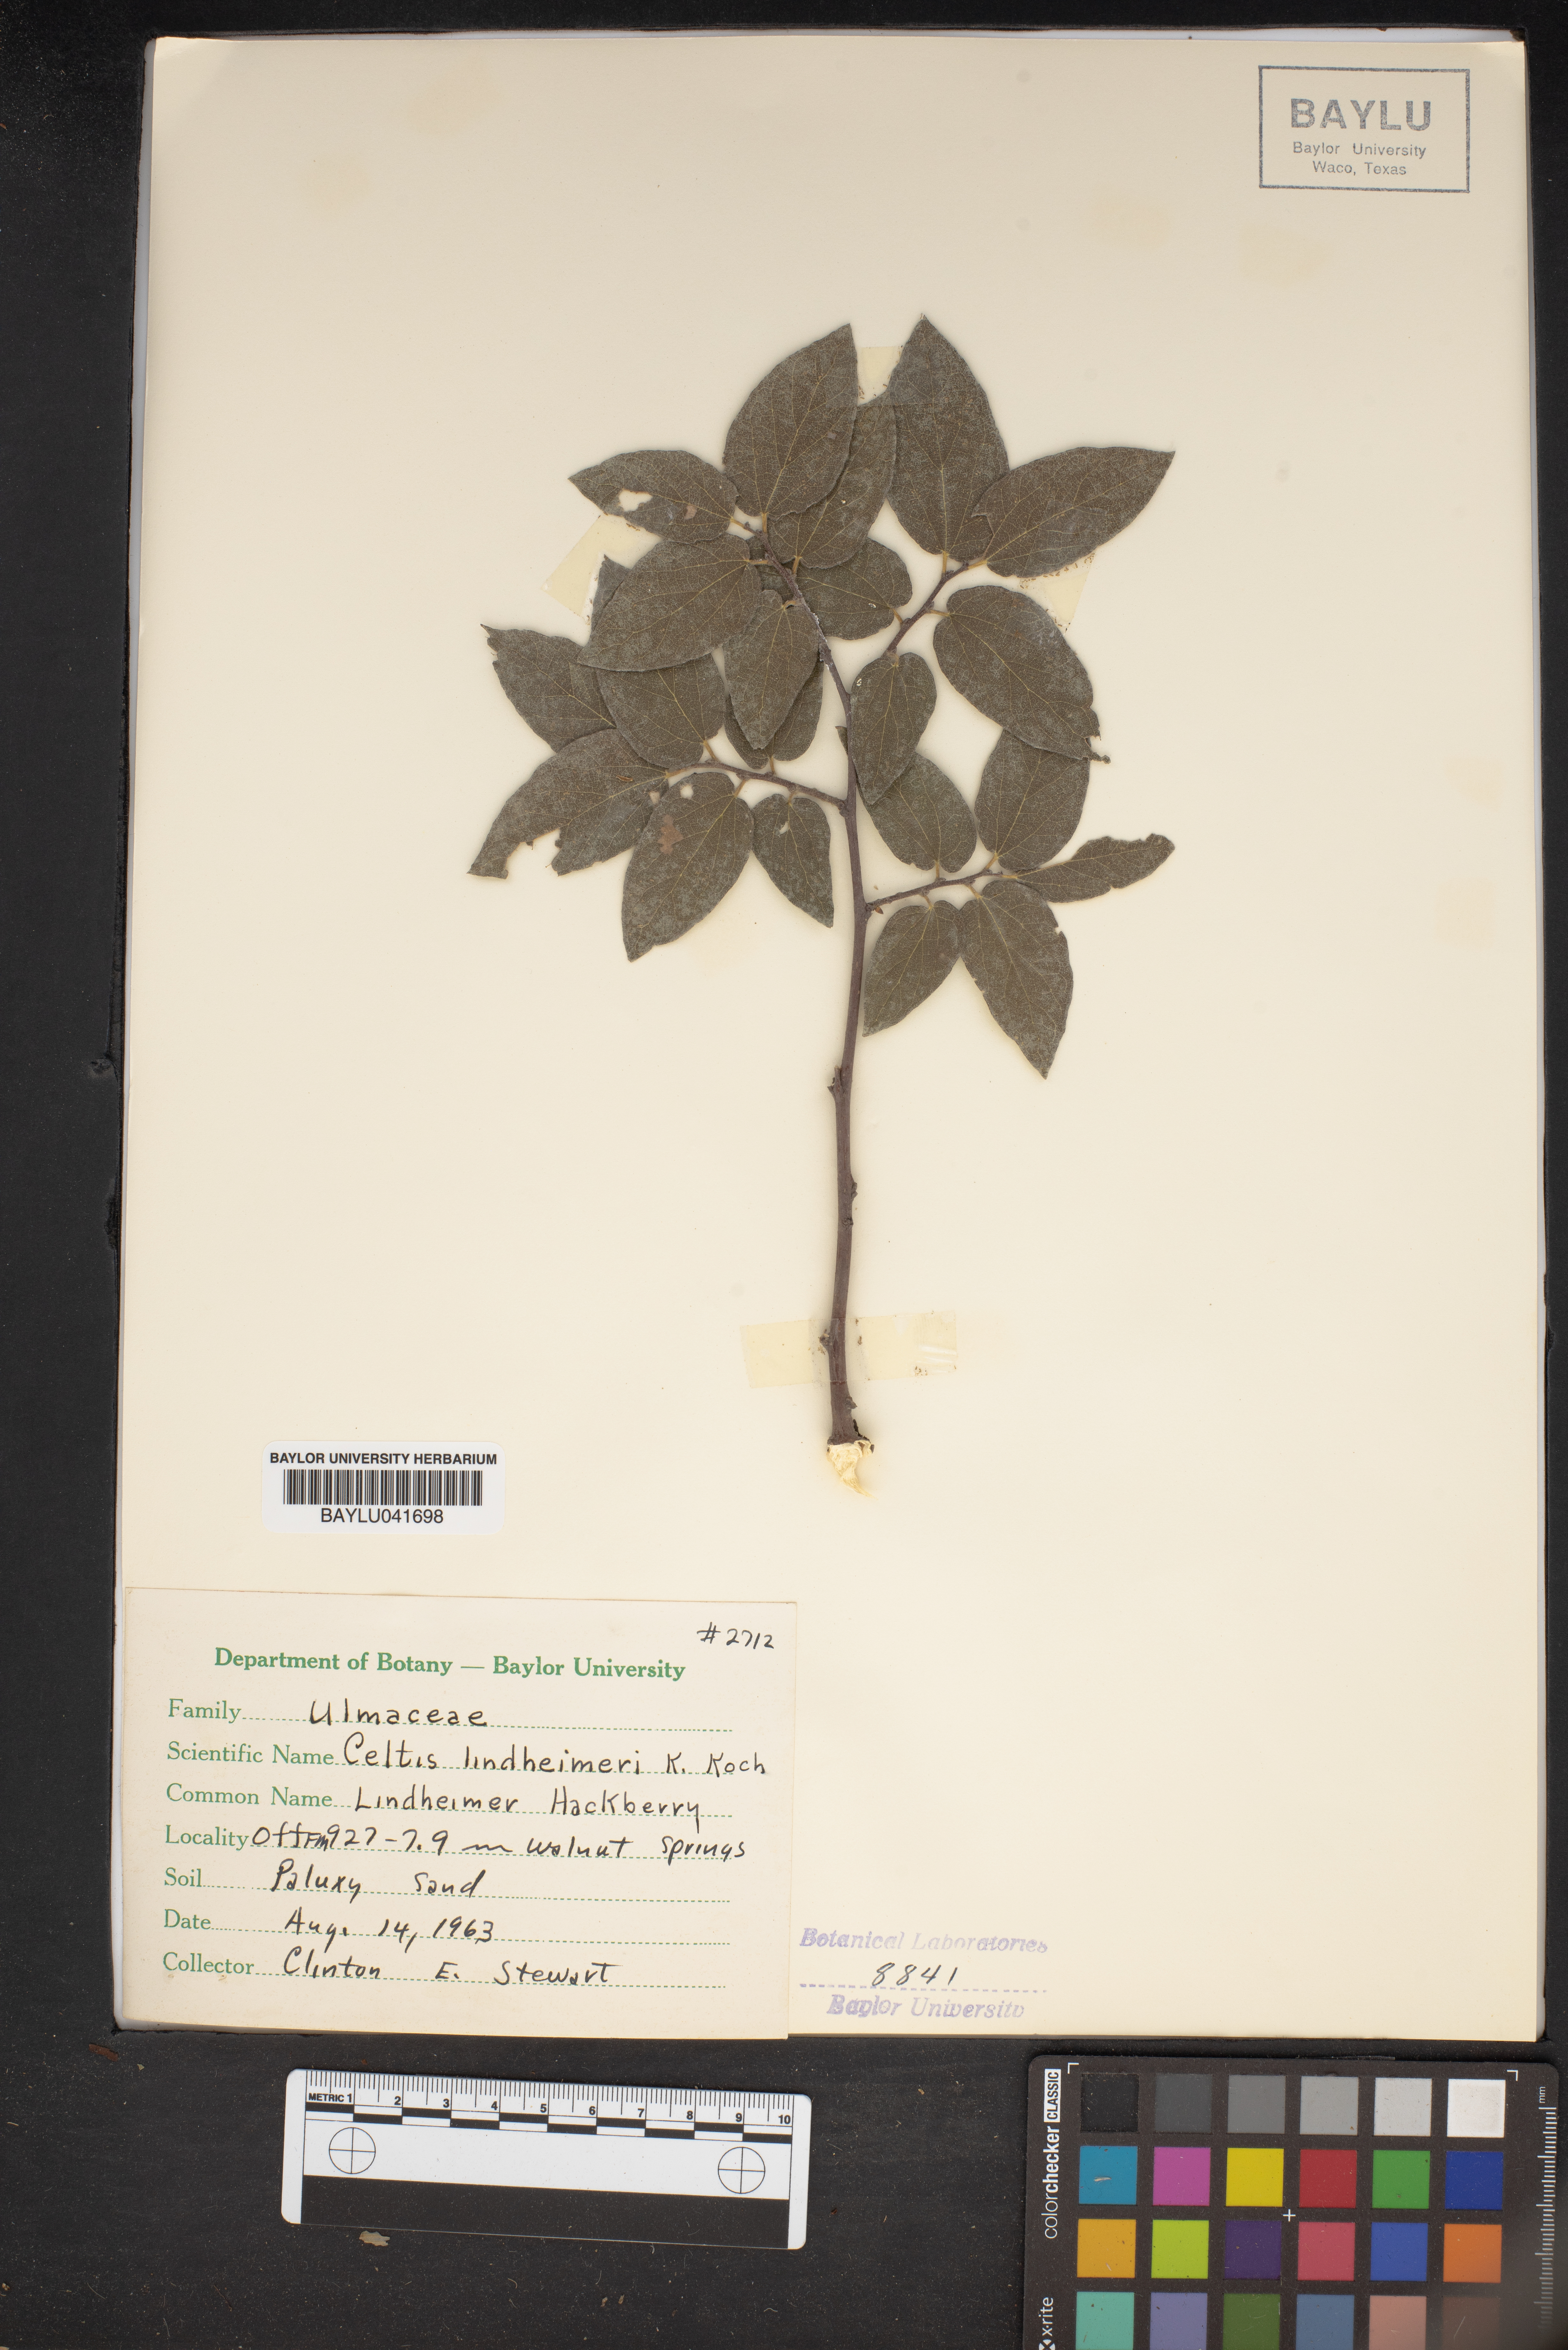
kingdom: Plantae
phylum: Tracheophyta
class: Magnoliopsida
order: Rosales
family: Cannabaceae
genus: Celtis
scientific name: Celtis lindheimeri
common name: Lindheimer hackberry
